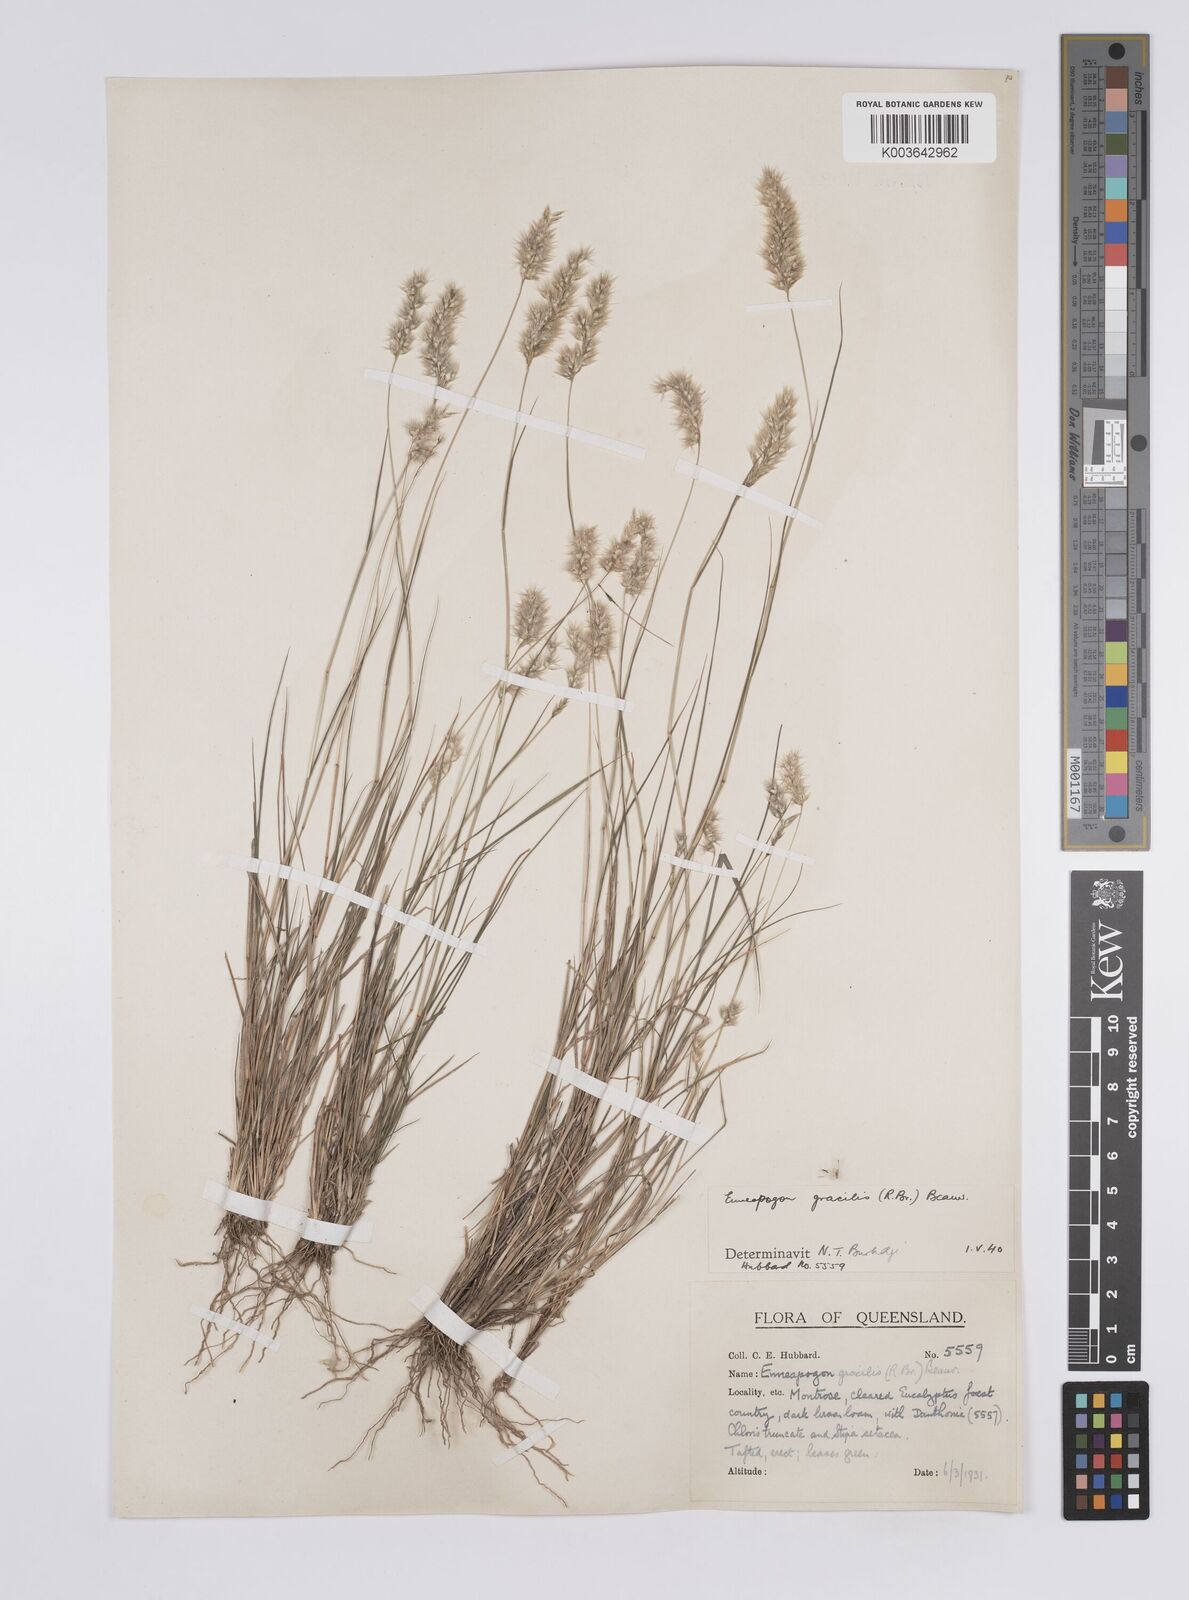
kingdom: Plantae
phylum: Tracheophyta
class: Liliopsida
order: Poales
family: Poaceae
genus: Enneapogon
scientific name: Enneapogon gracilis
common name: Slender bottle-washers
